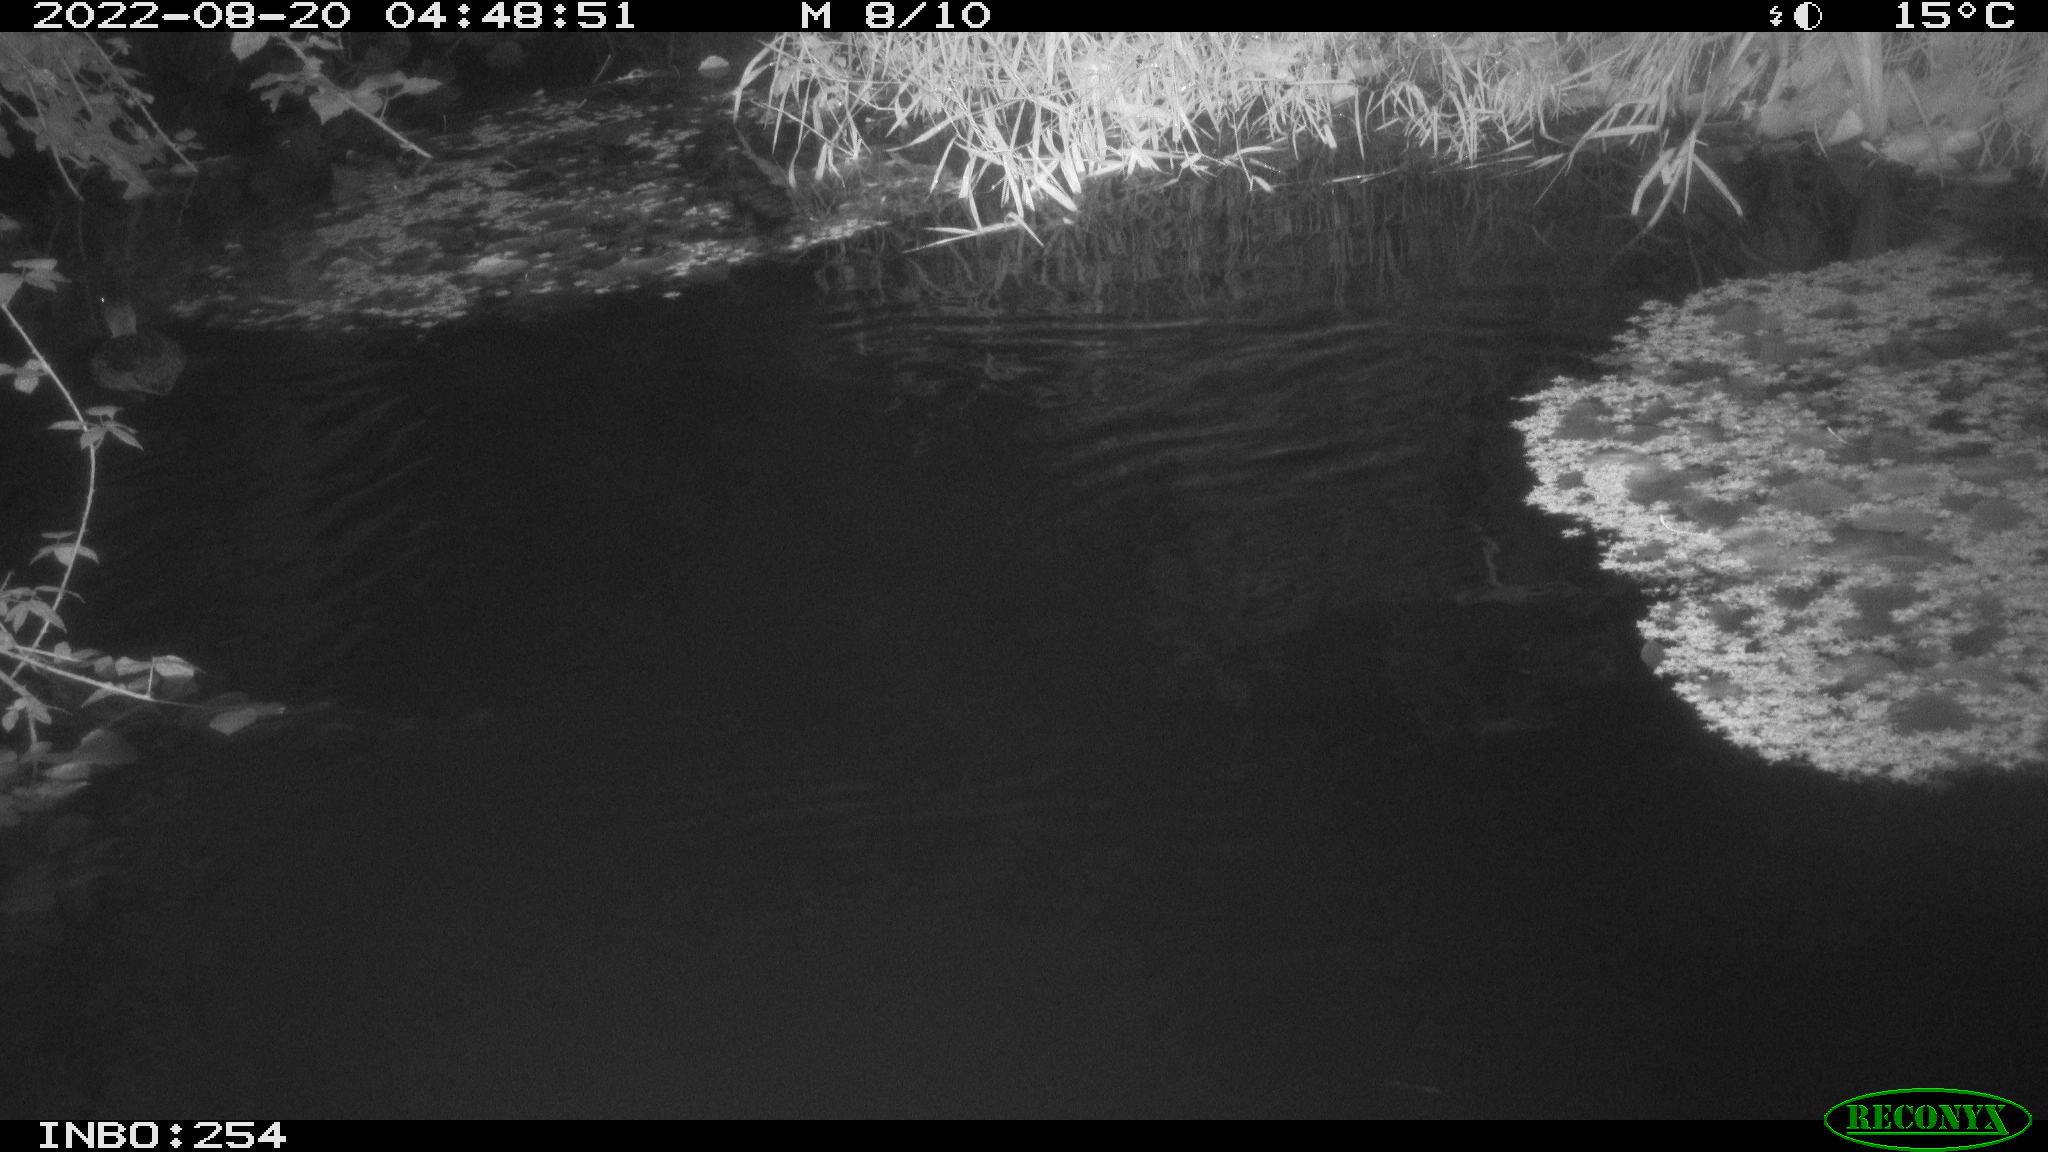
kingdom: Animalia
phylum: Chordata
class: Aves
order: Anseriformes
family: Anatidae
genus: Anas
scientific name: Anas platyrhynchos
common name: Mallard
